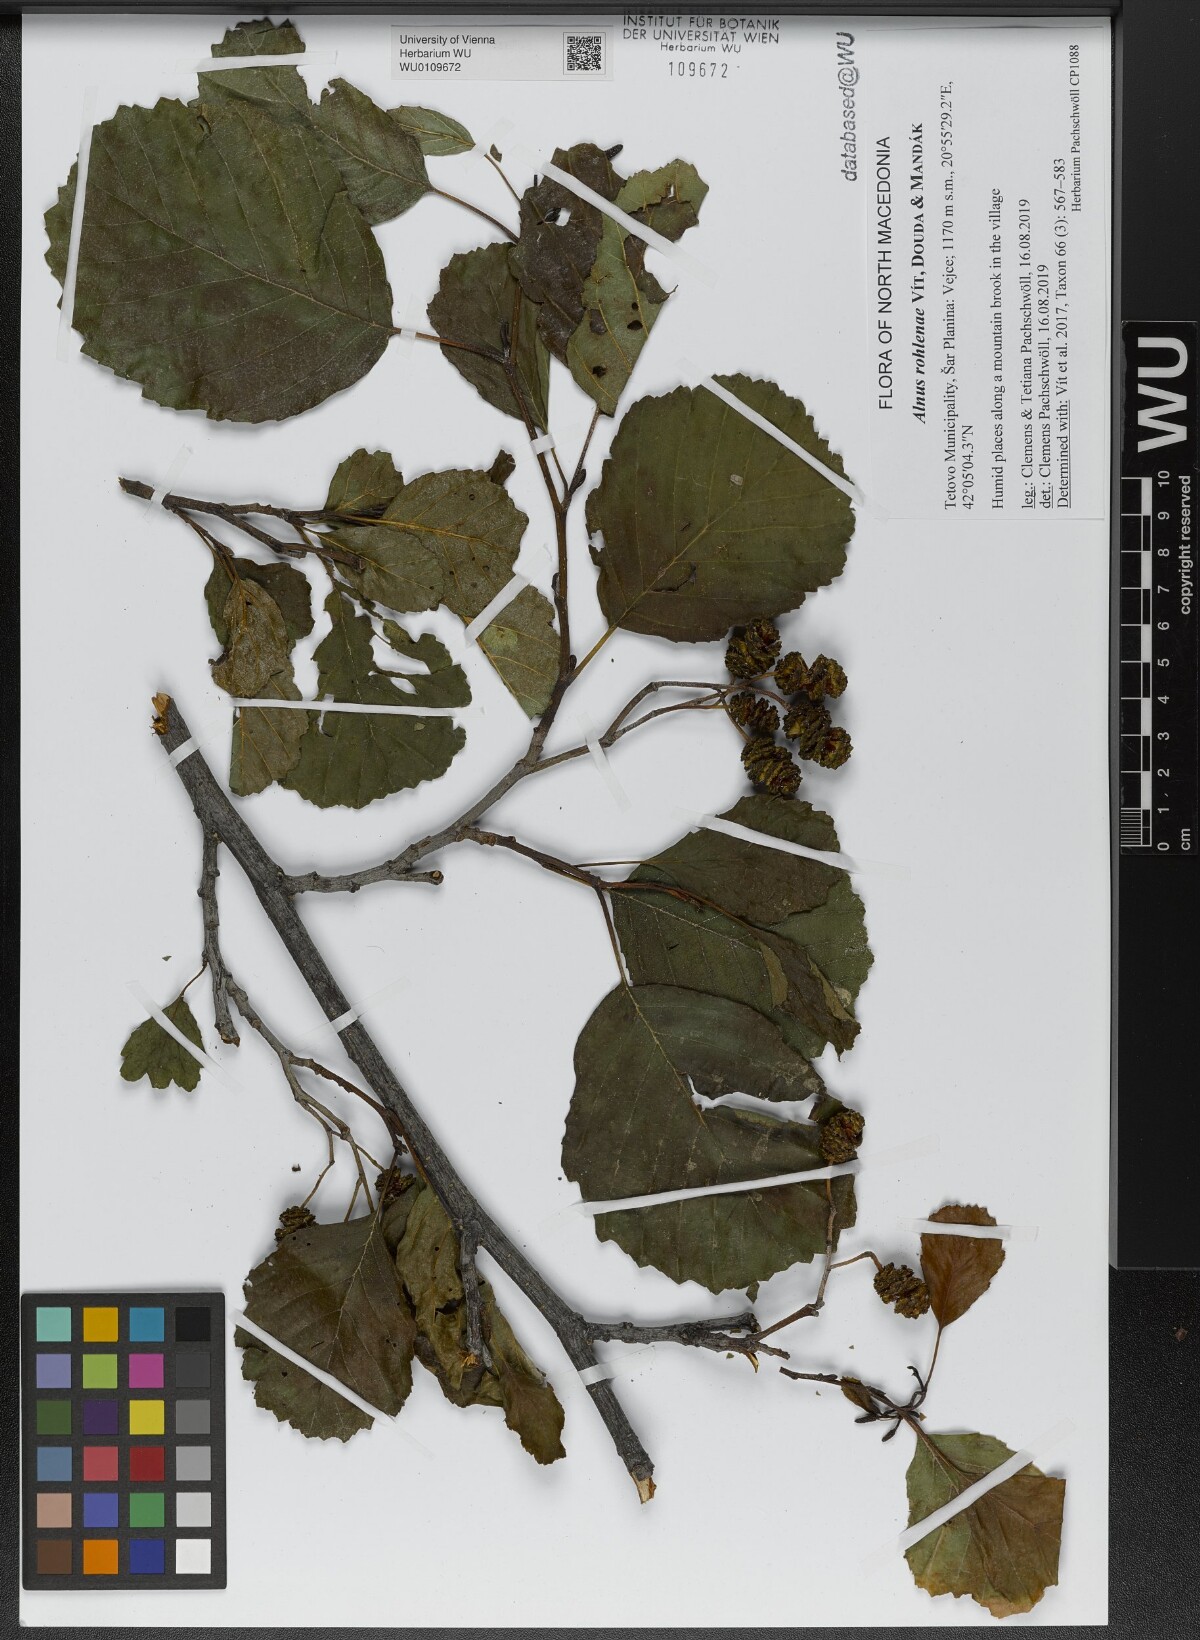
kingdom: Plantae
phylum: Tracheophyta
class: Magnoliopsida
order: Fagales
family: Betulaceae
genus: Alnus
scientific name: Alnus rohlenae
